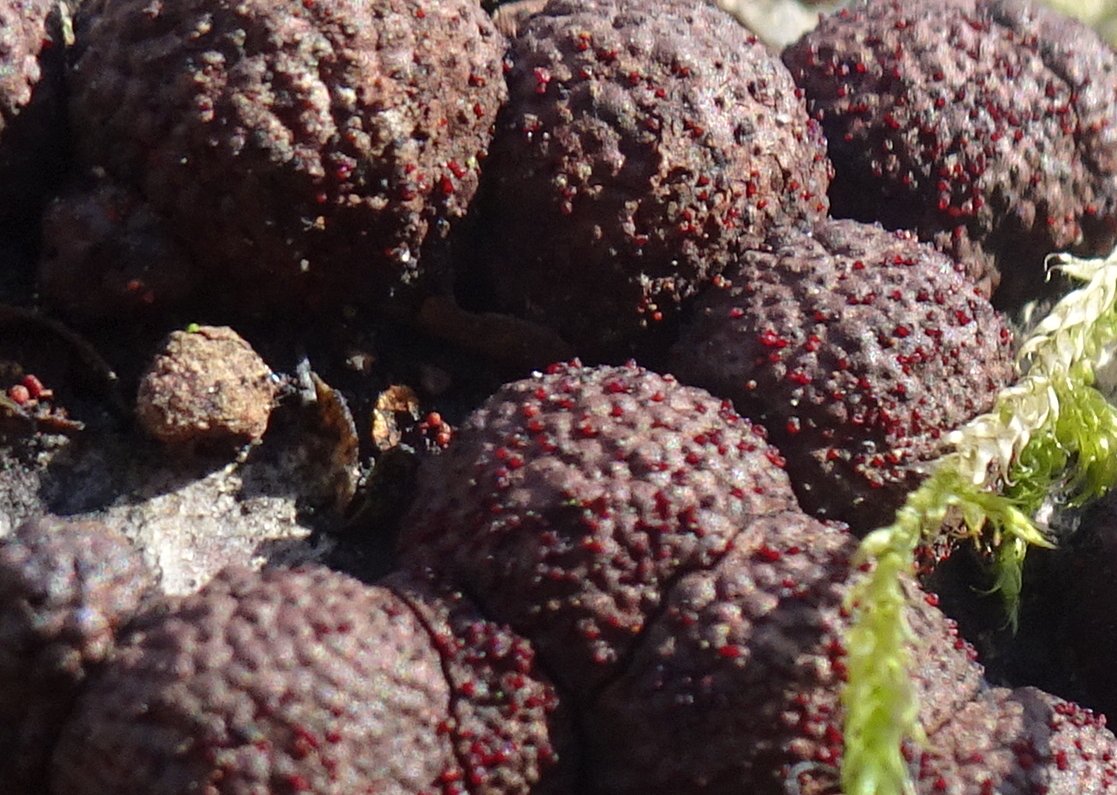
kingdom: Fungi
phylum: Ascomycota
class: Sordariomycetes
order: Hypocreales
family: Nectriaceae
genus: Cosmospora
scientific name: Cosmospora arxii
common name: kuljordbær-cinnobersvamp
